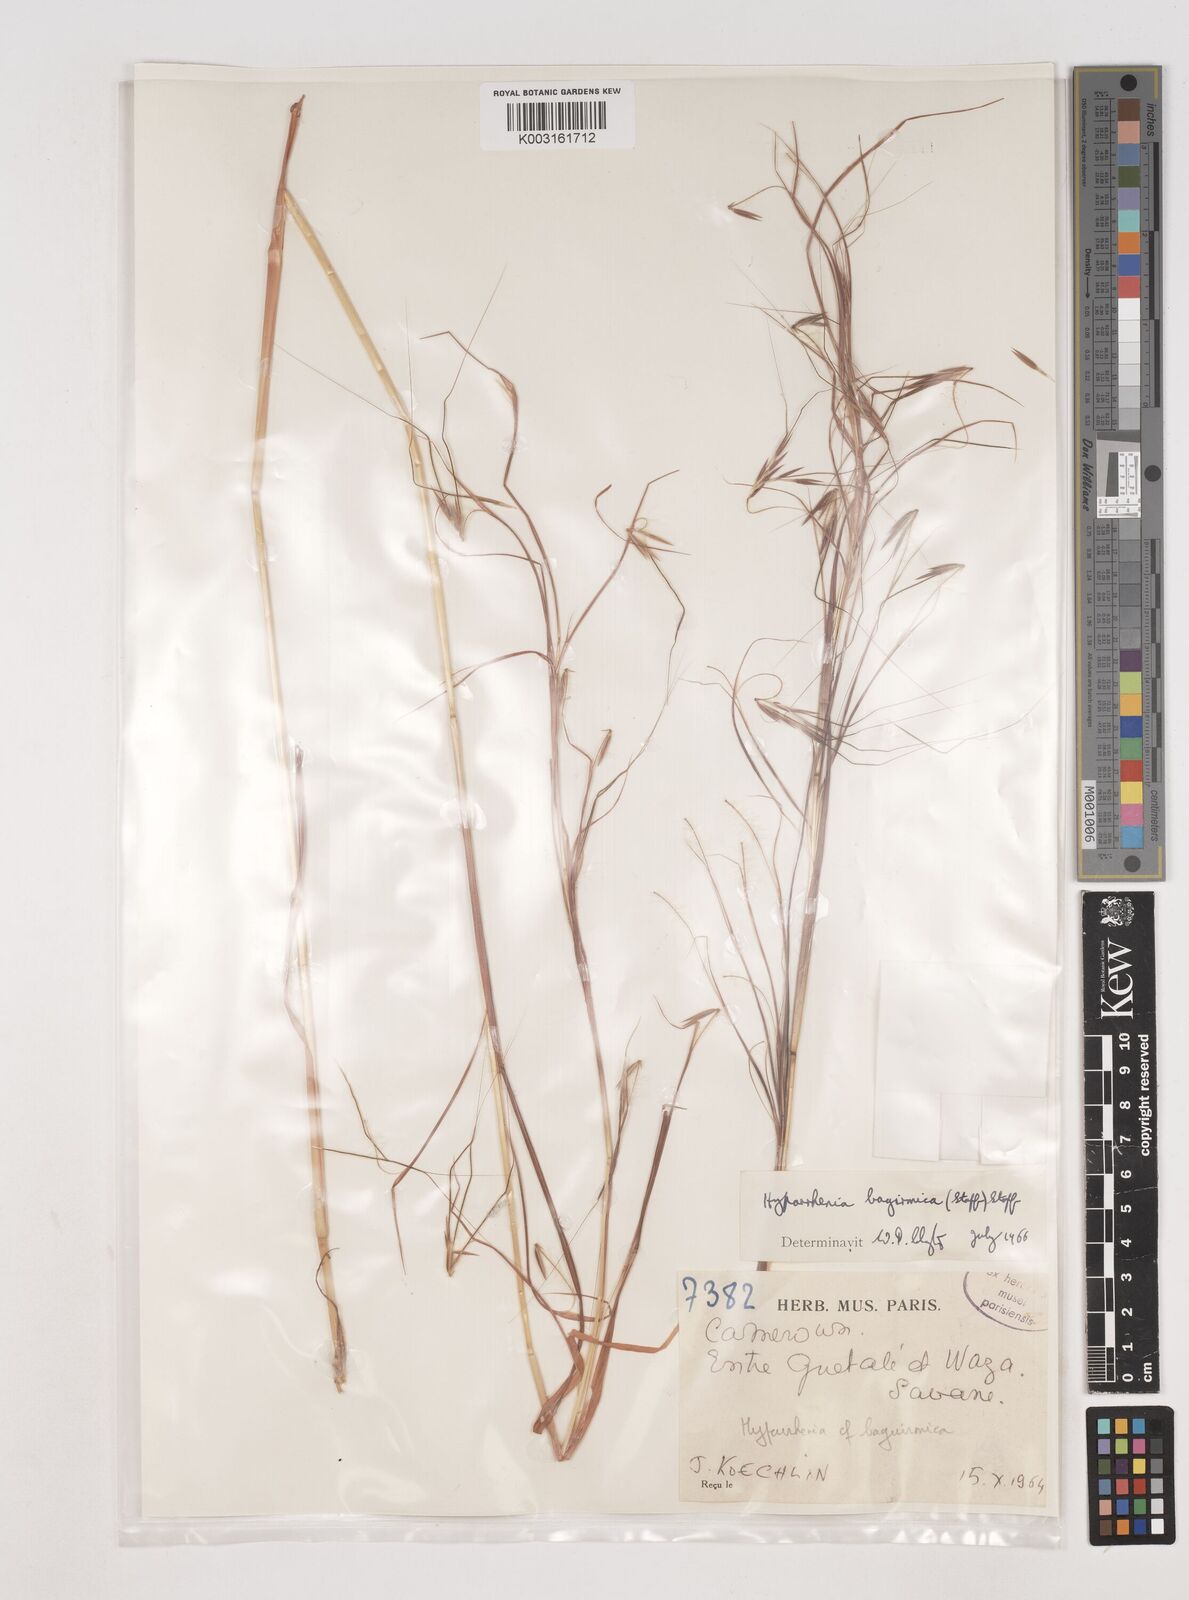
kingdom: Plantae
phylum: Tracheophyta
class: Liliopsida
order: Poales
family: Poaceae
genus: Hyparrhenia
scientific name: Hyparrhenia bagirmica
